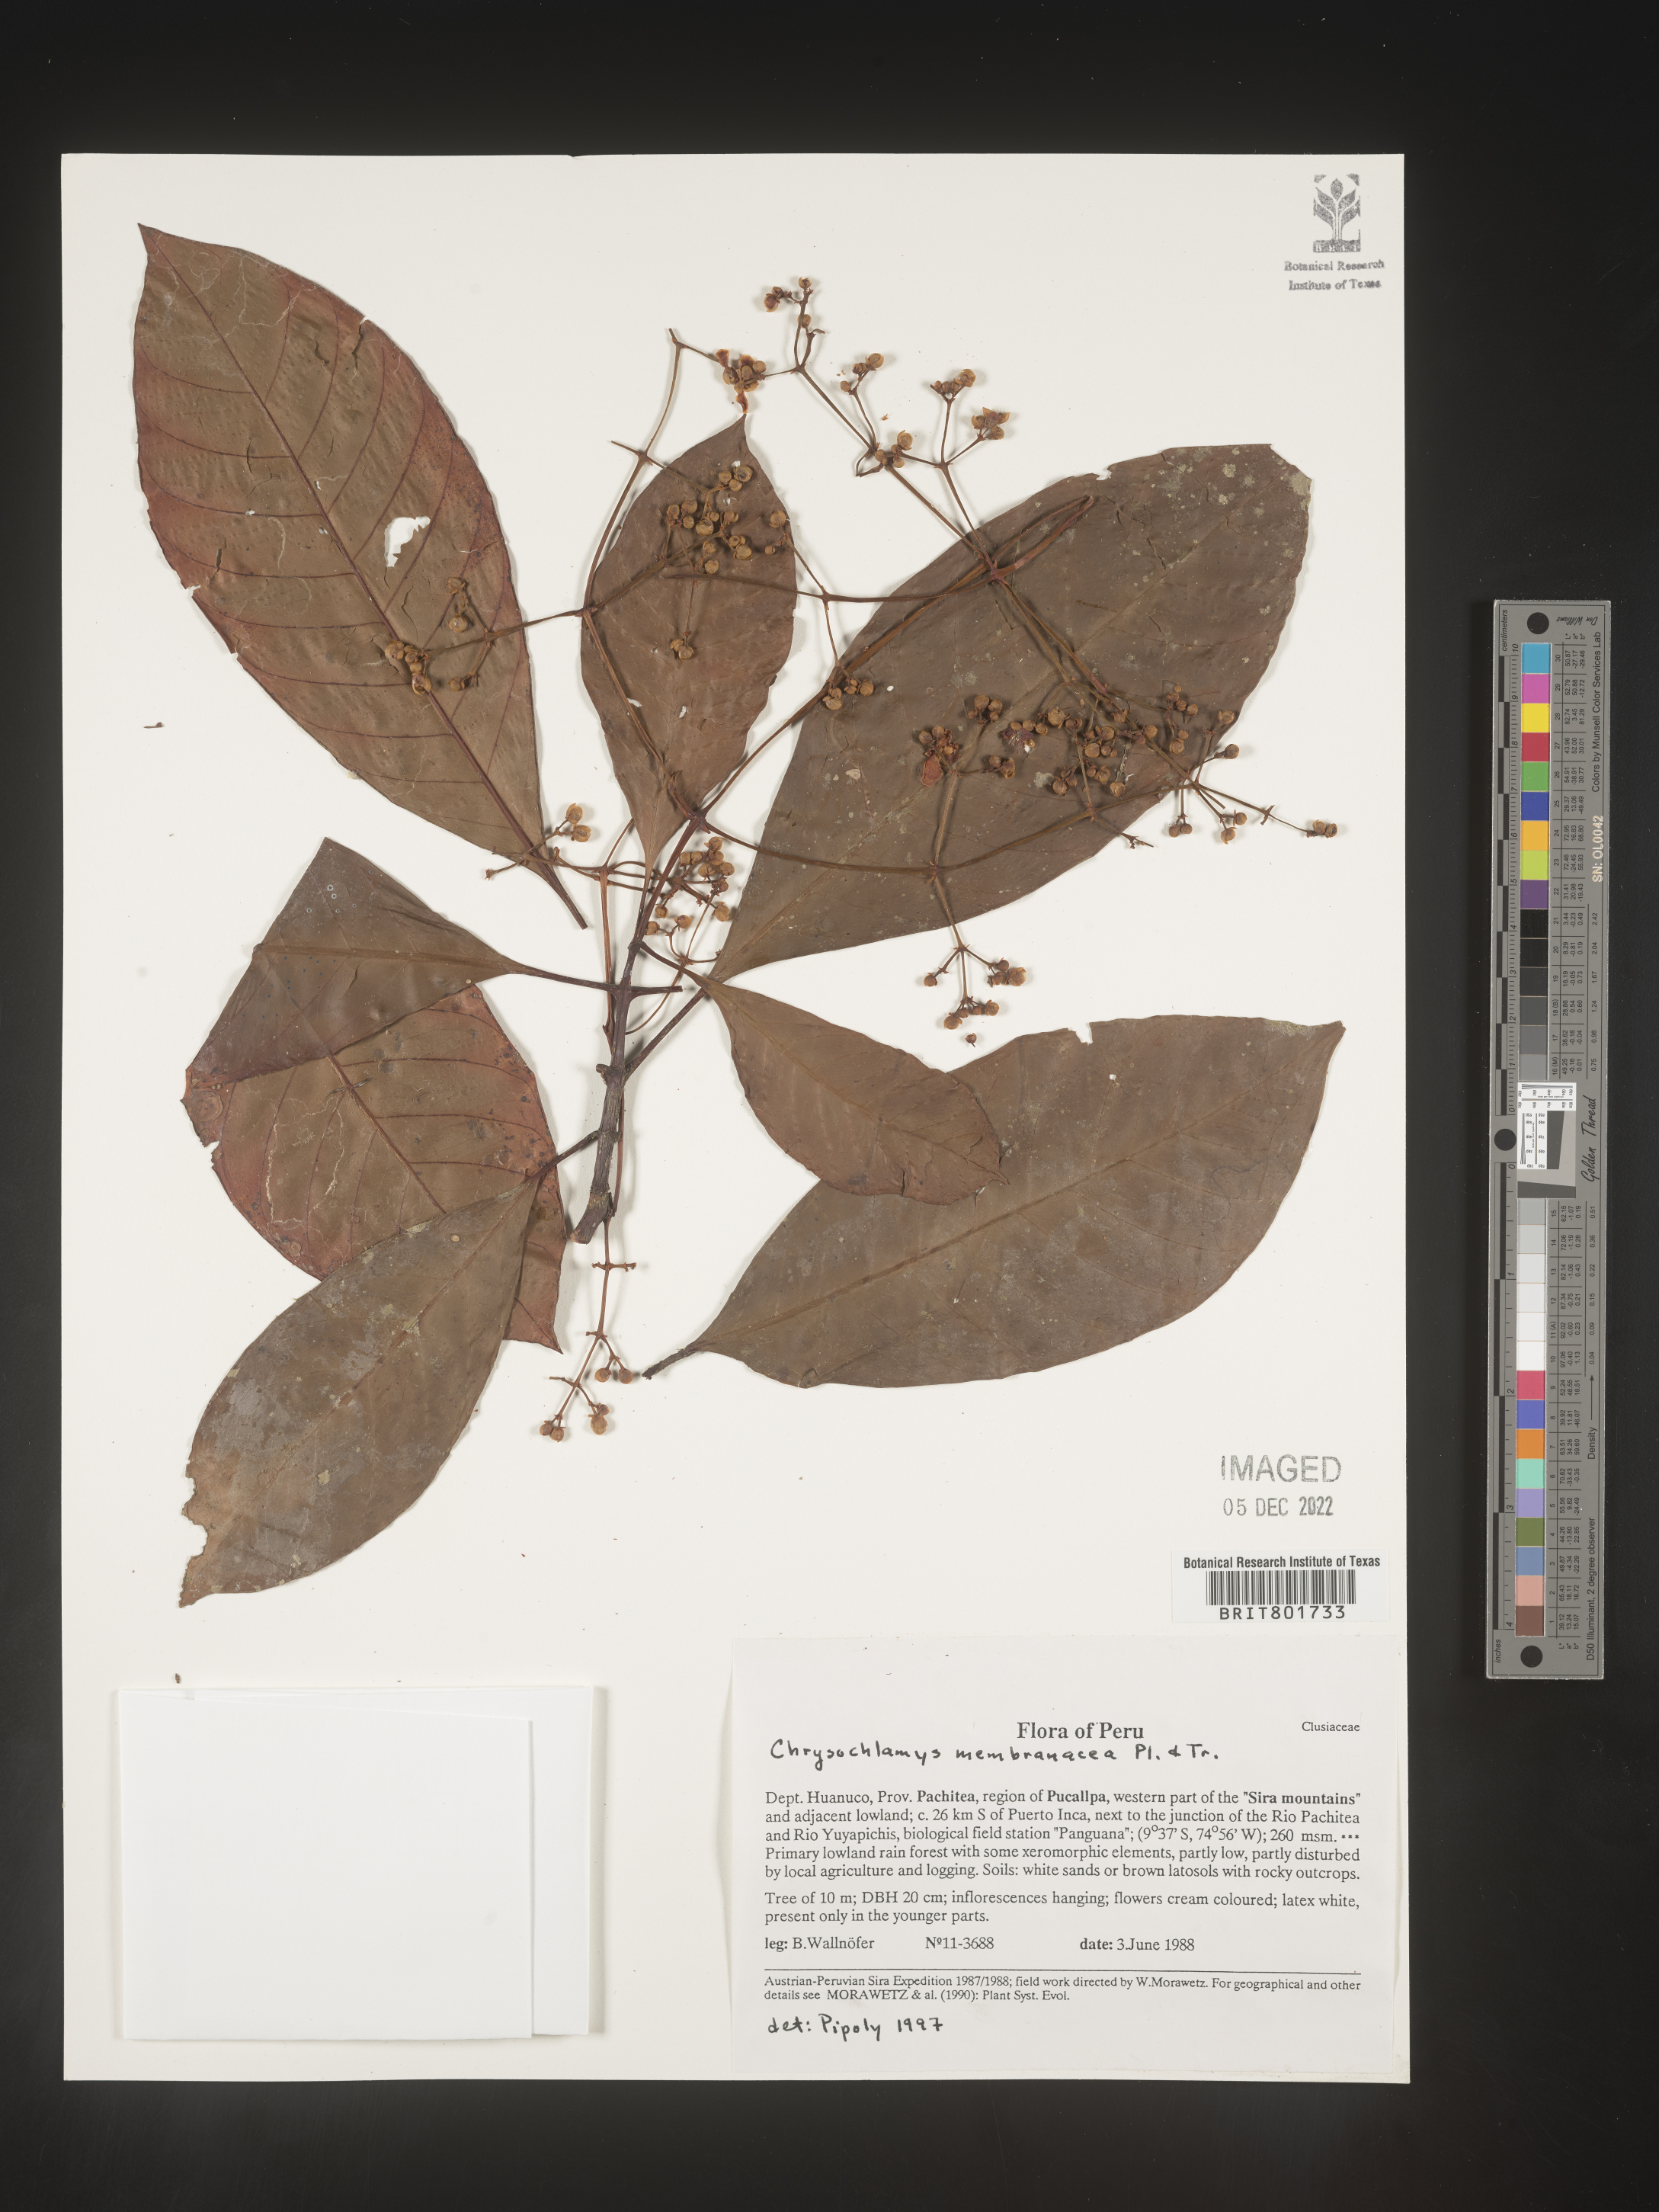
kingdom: Plantae
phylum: Tracheophyta
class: Magnoliopsida
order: Malpighiales
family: Clusiaceae
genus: Chrysochlamys
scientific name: Chrysochlamys membranacea
